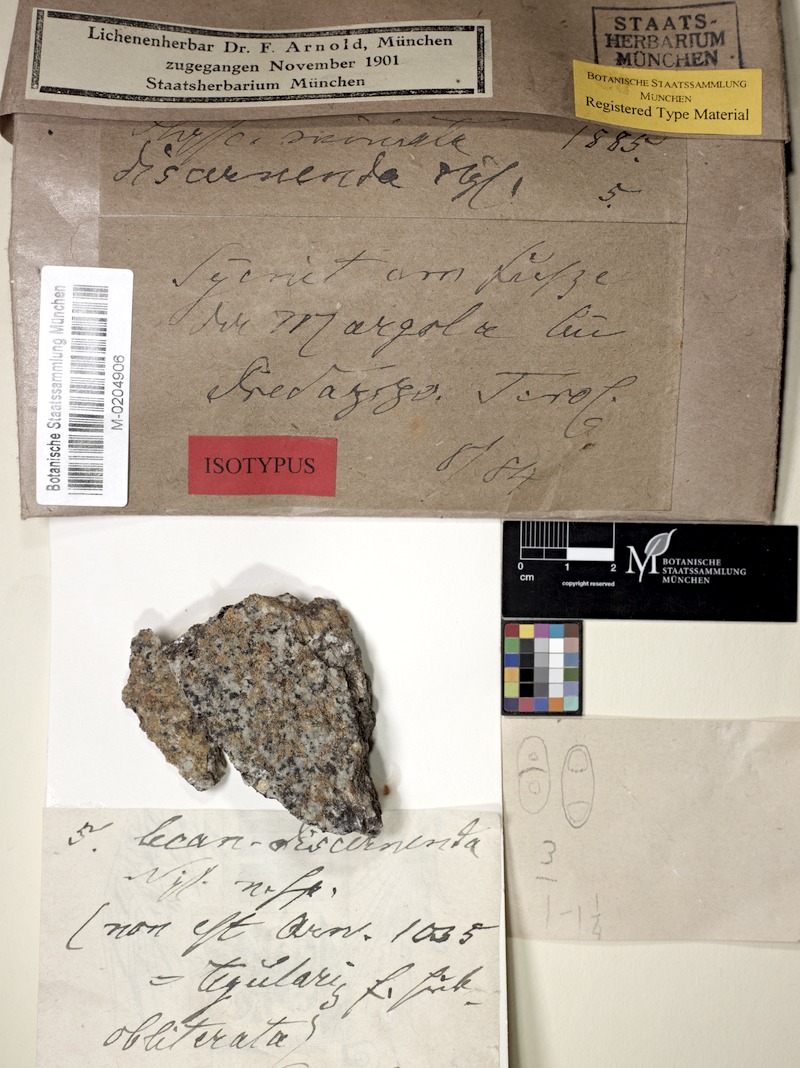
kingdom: Fungi
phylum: Ascomycota
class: Lecanoromycetes
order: Teloschistales
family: Teloschistaceae
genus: Calogaya
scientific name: Calogaya saxicola
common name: Rock jewel lichen
